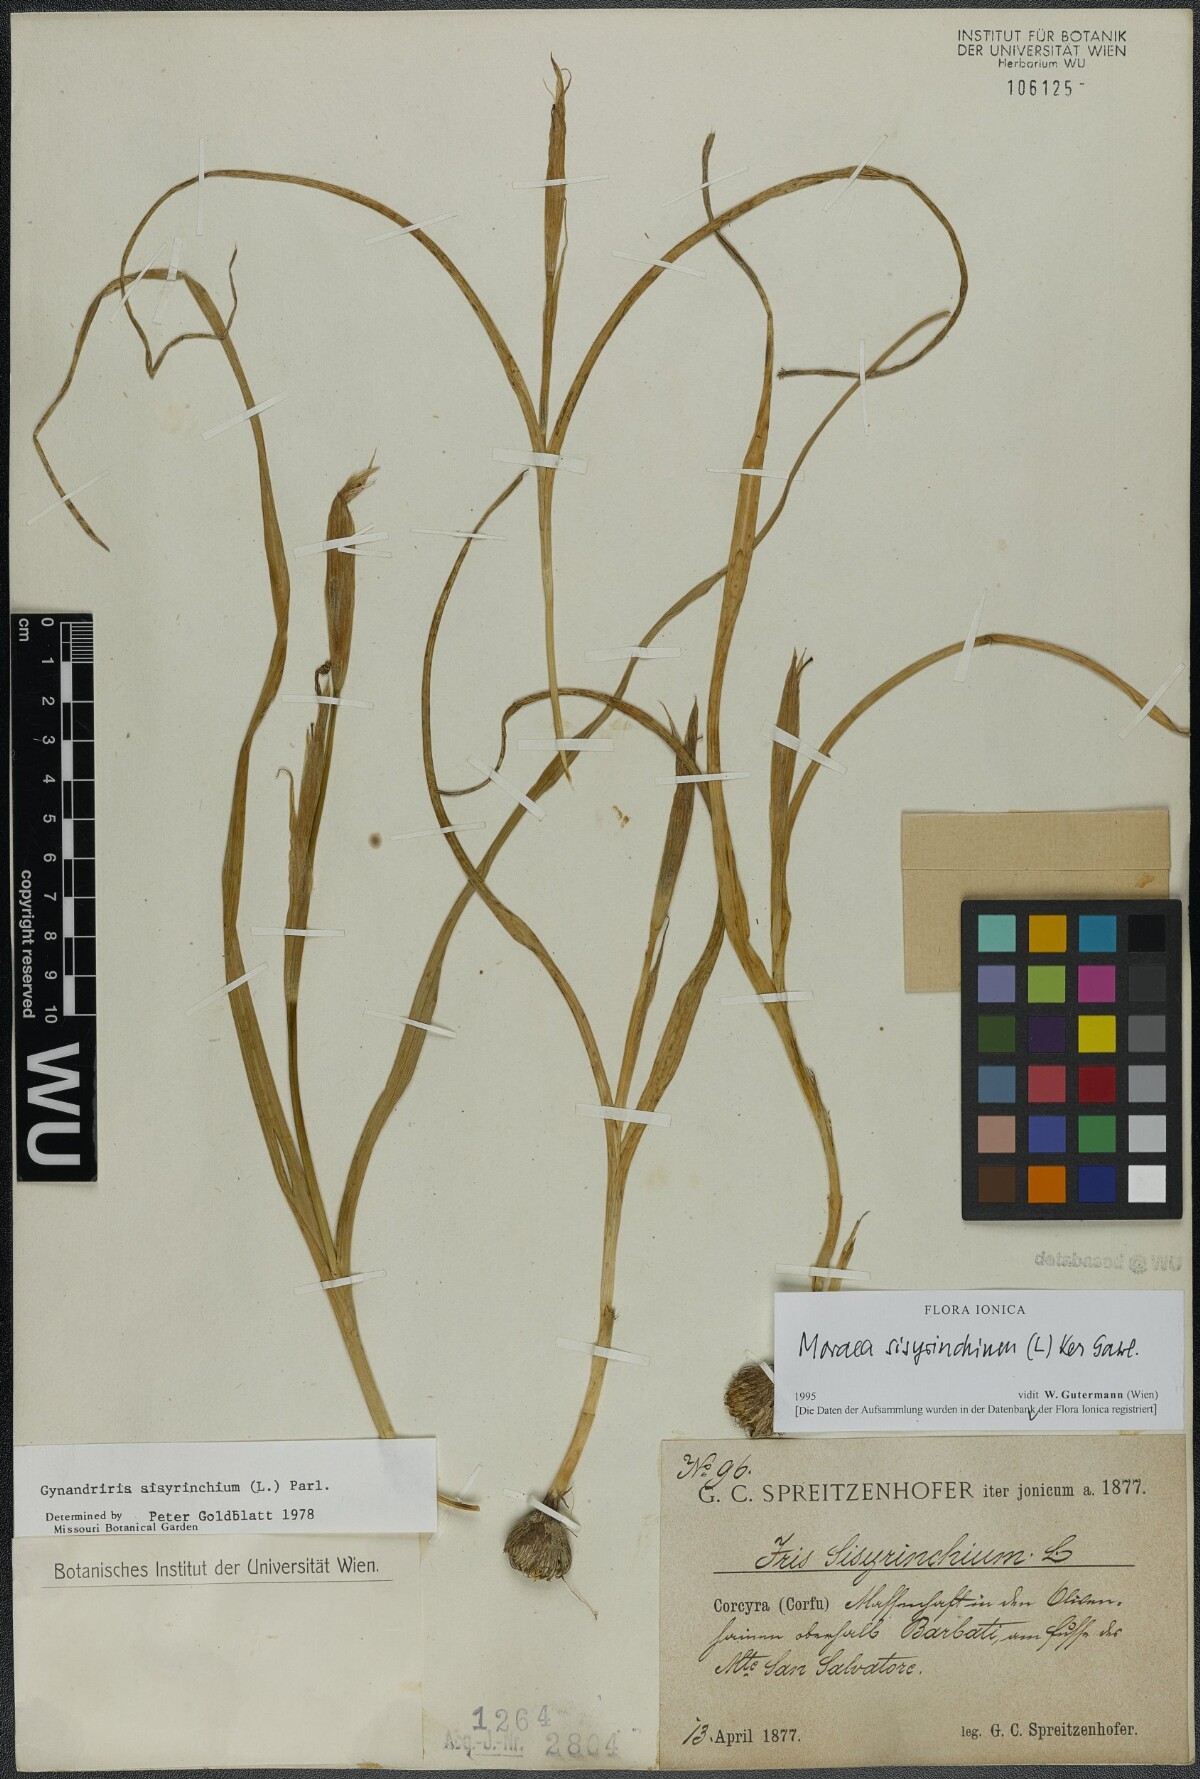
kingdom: Plantae
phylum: Tracheophyta
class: Liliopsida
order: Asparagales
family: Iridaceae
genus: Moraea
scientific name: Moraea sisyrinchium
